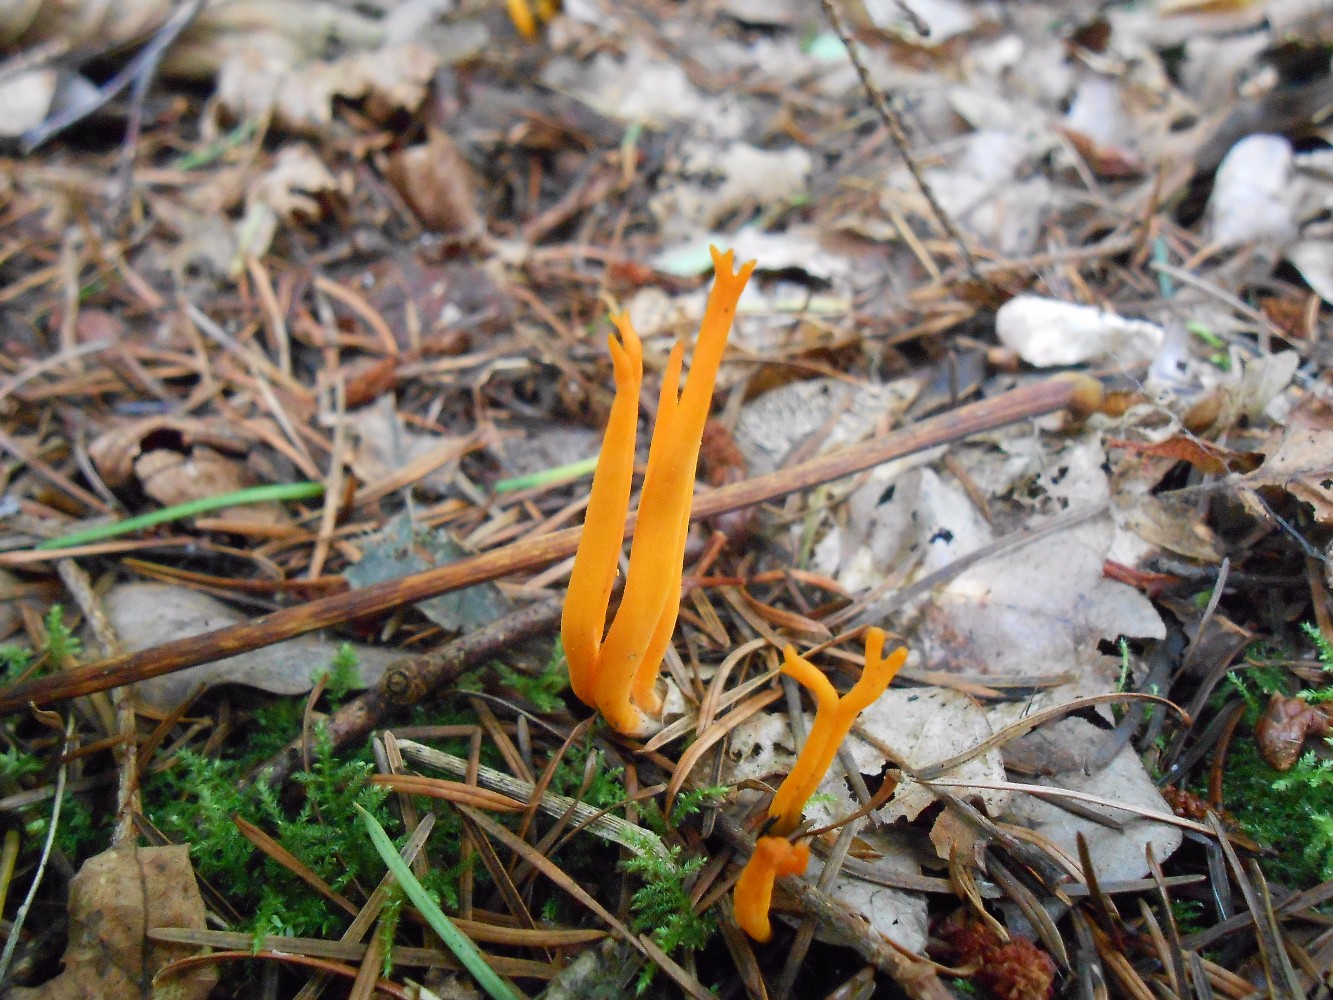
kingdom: Fungi
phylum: Basidiomycota
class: Dacrymycetes
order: Dacrymycetales
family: Dacrymycetaceae
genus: Calocera
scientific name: Calocera viscosa
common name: almindelig guldgaffel
